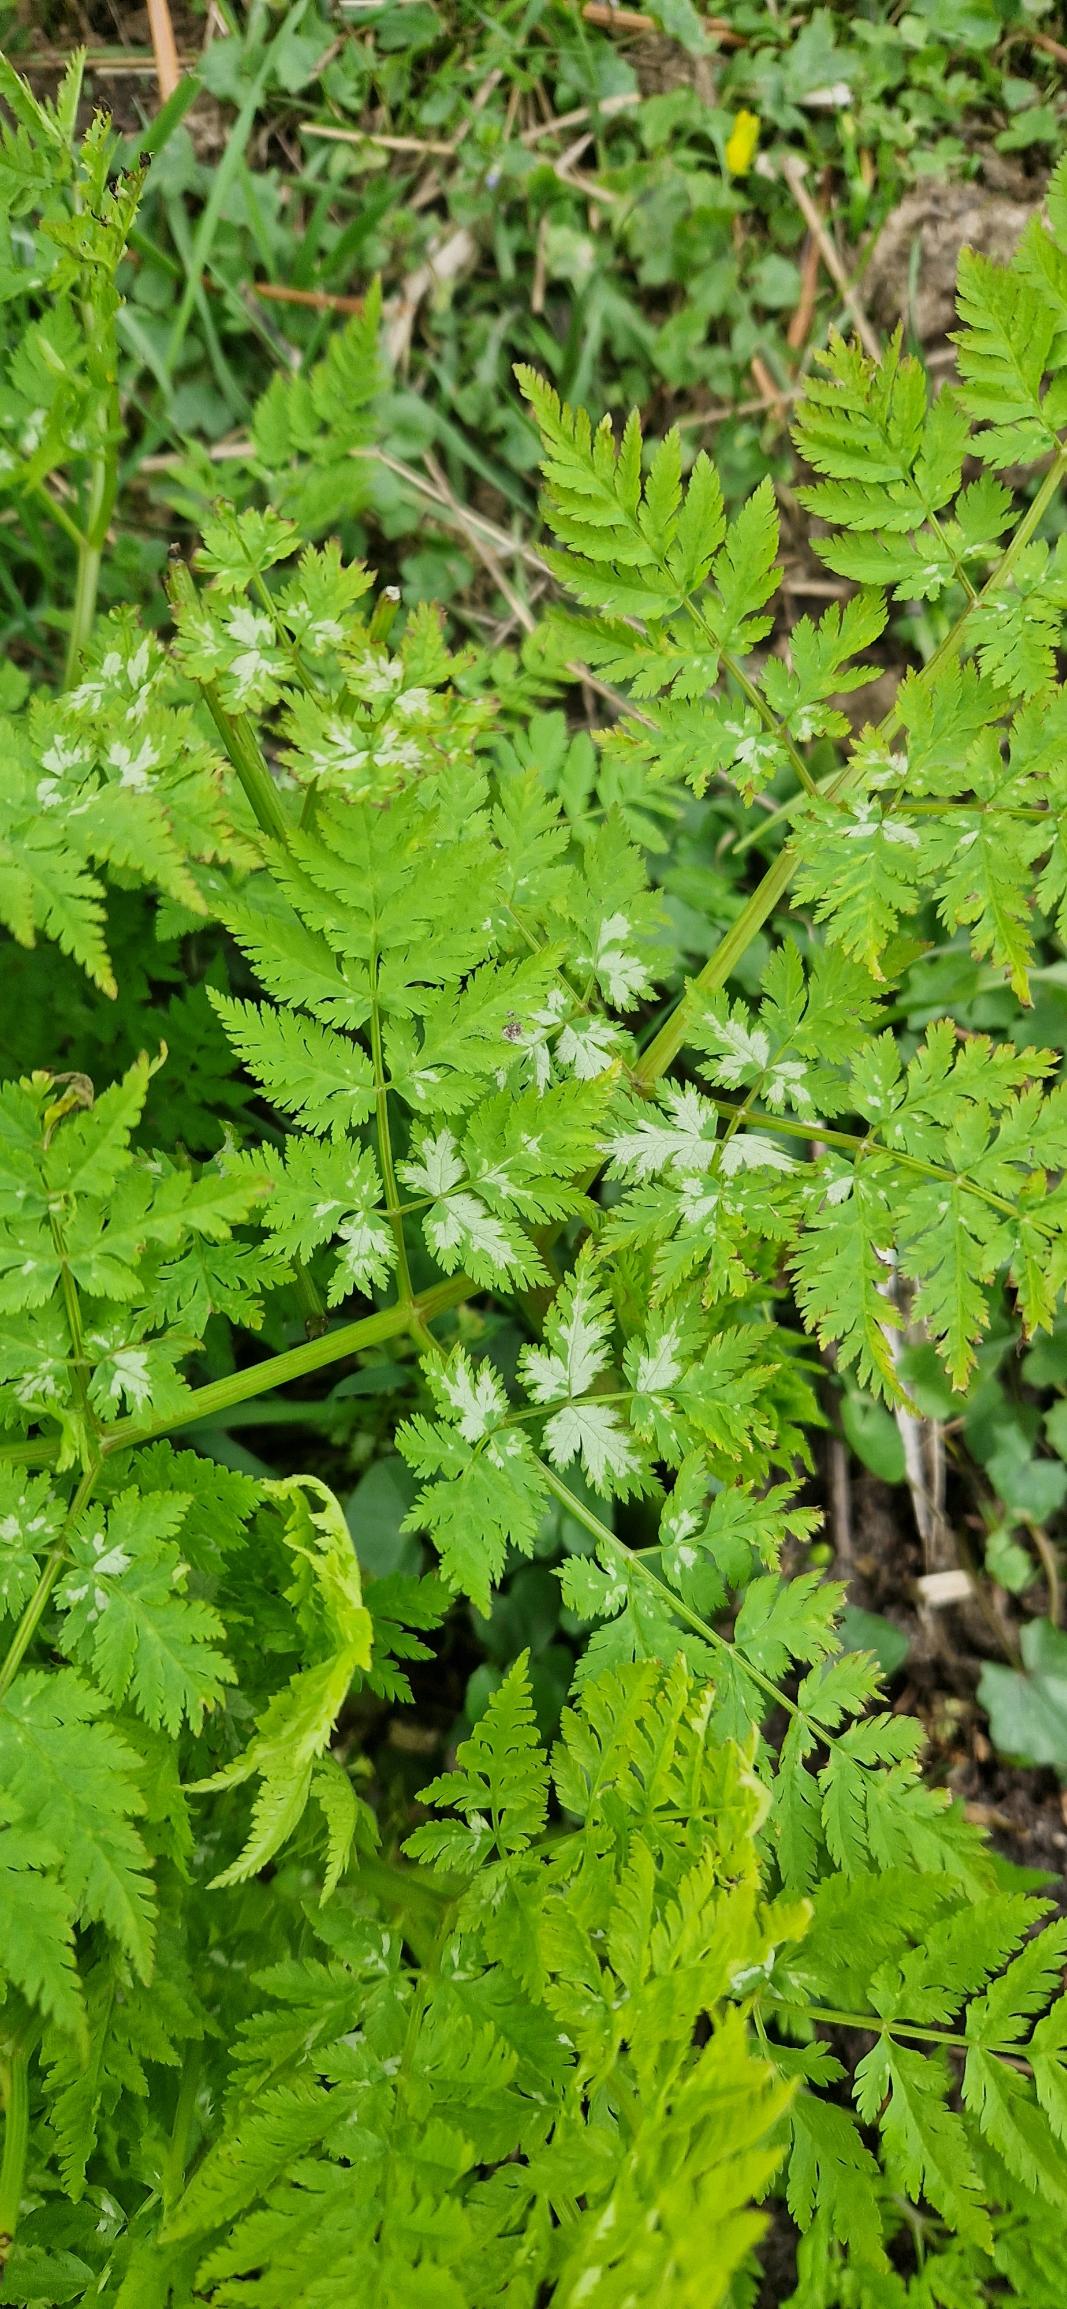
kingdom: Plantae
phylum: Tracheophyta
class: Magnoliopsida
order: Apiales
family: Apiaceae
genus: Myrrhis
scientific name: Myrrhis odorata
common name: Sødskærm
